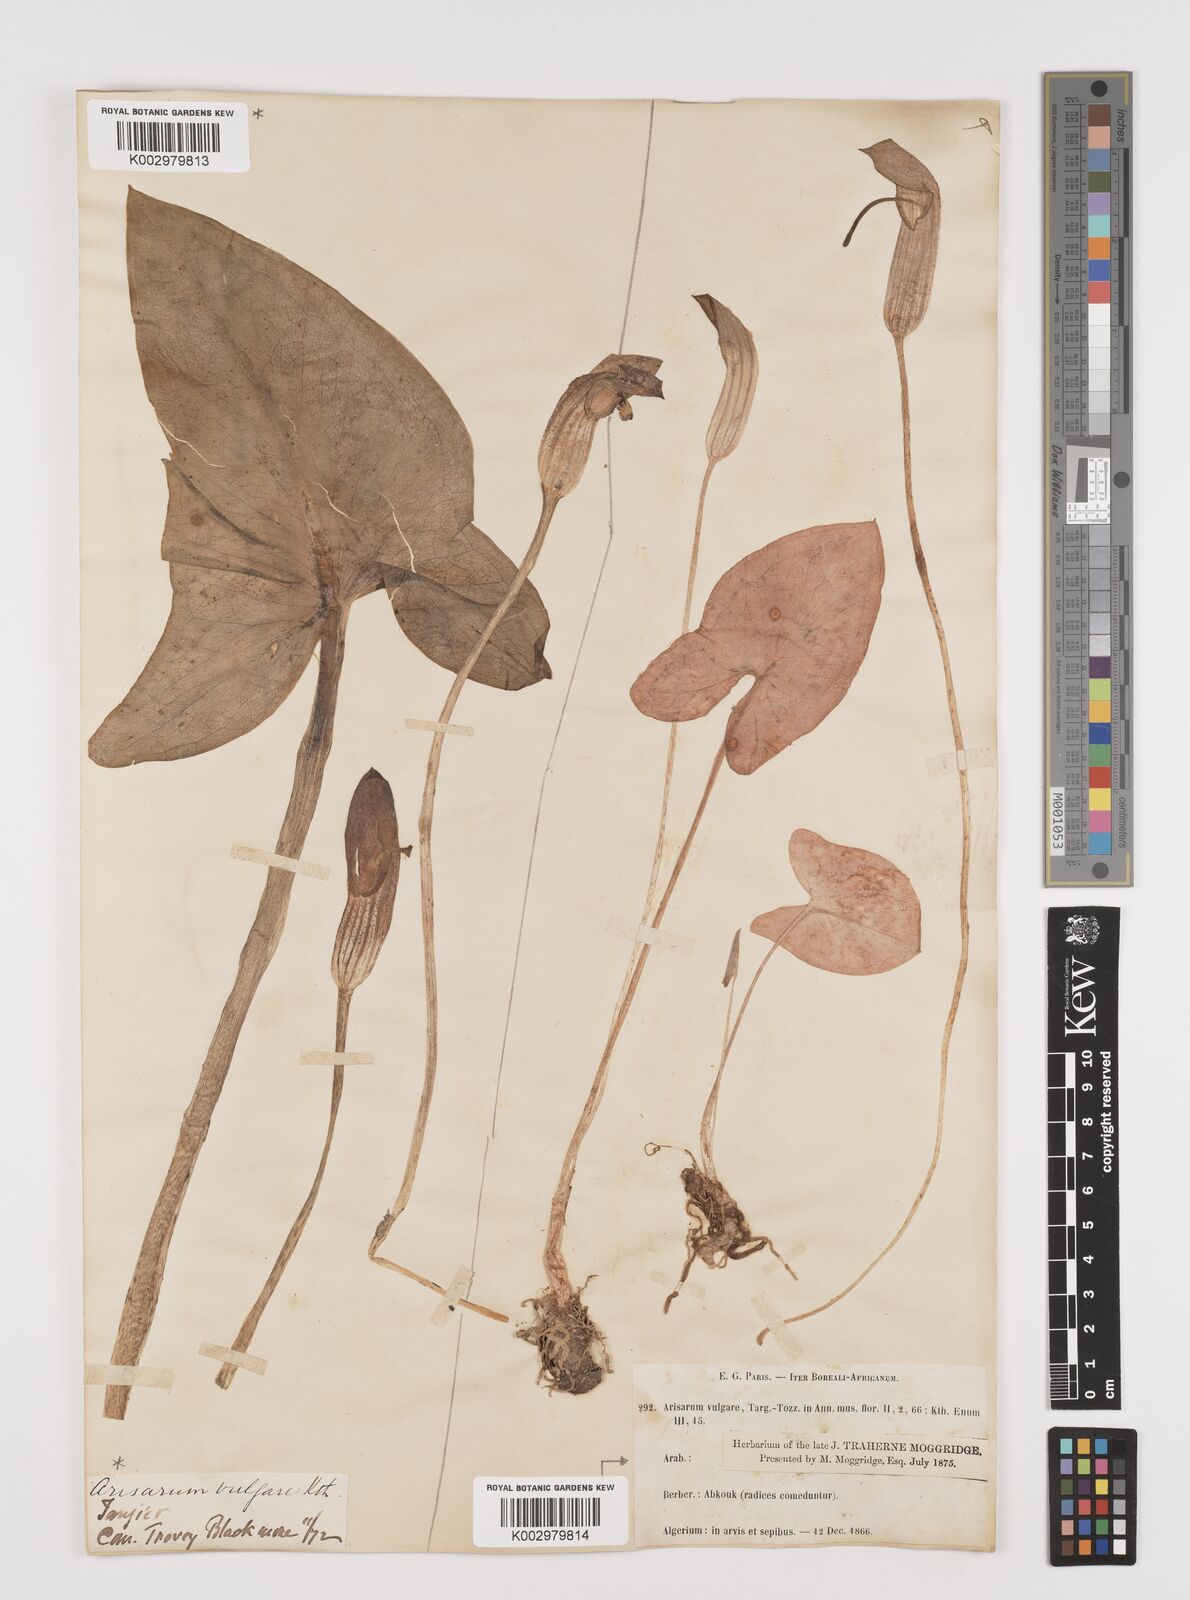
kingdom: Plantae
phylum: Tracheophyta
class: Liliopsida
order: Alismatales
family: Araceae
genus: Arisarum
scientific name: Arisarum vulgare
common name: Common arisarum
